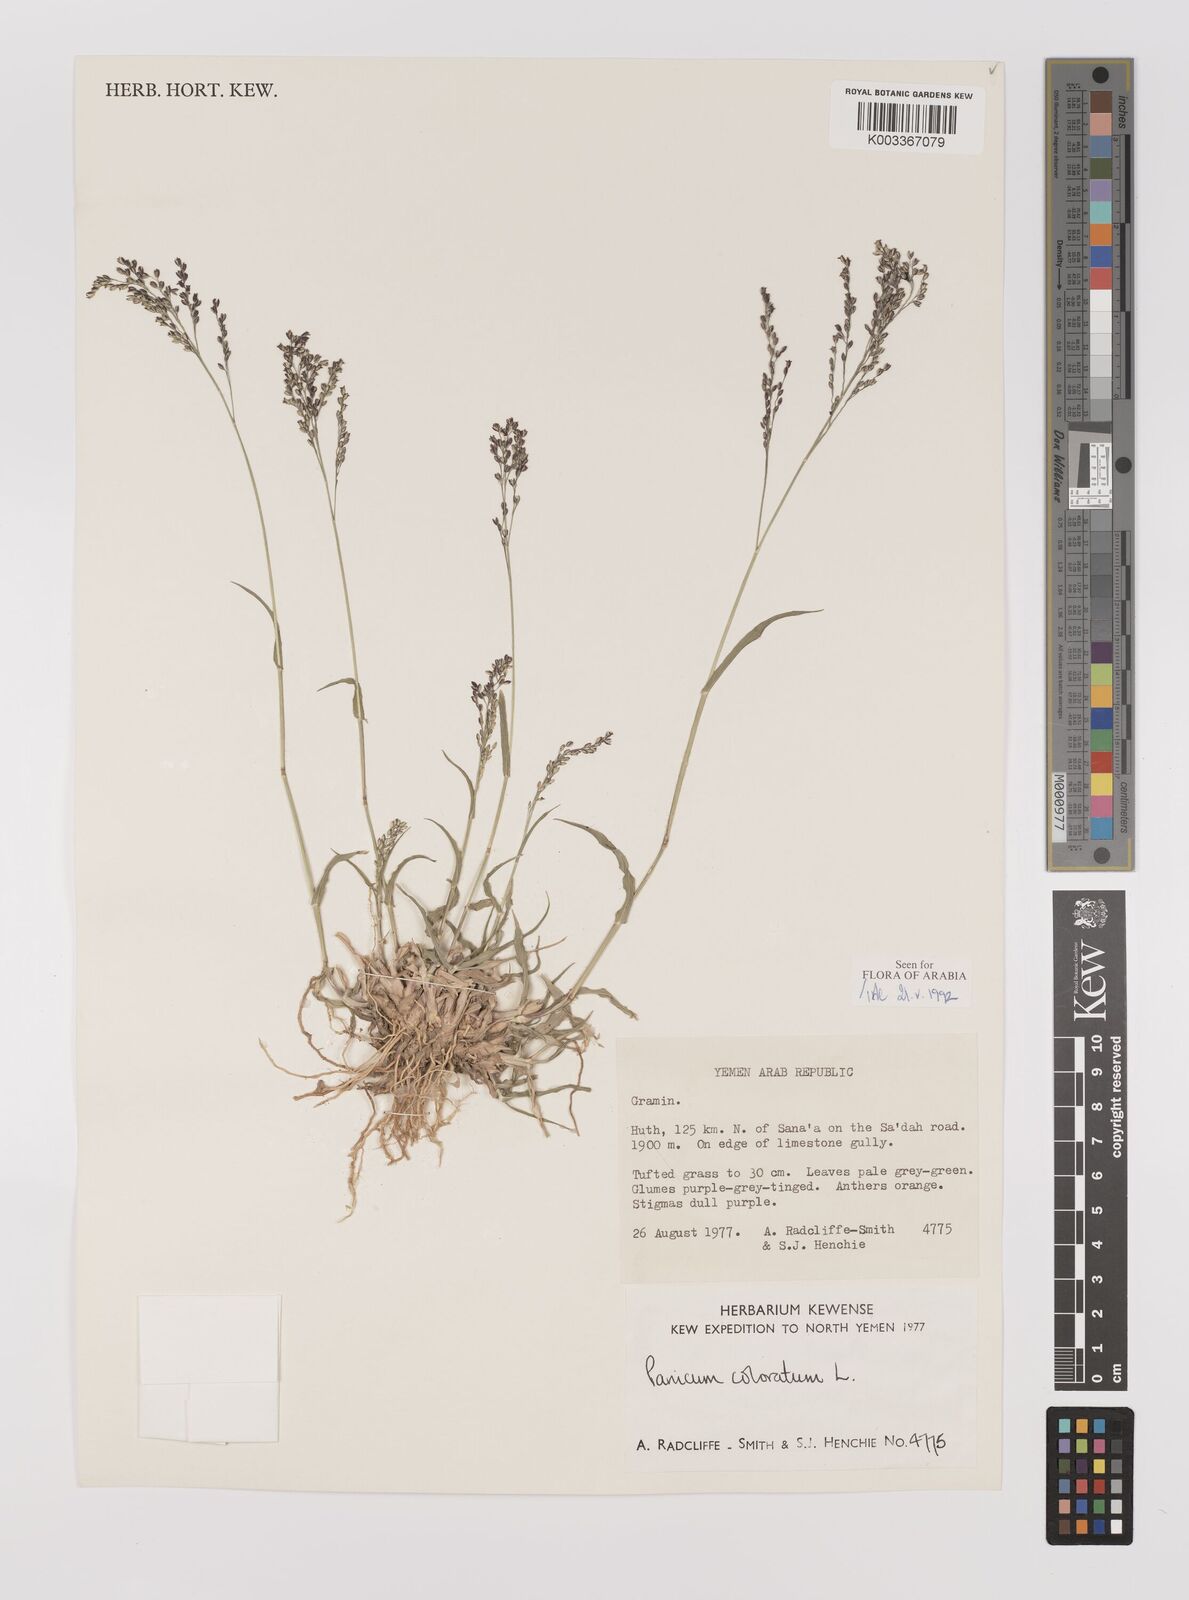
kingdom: Plantae
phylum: Tracheophyta
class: Liliopsida
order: Poales
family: Poaceae
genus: Echinochloa
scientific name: Echinochloa colonum
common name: Jungle rice
